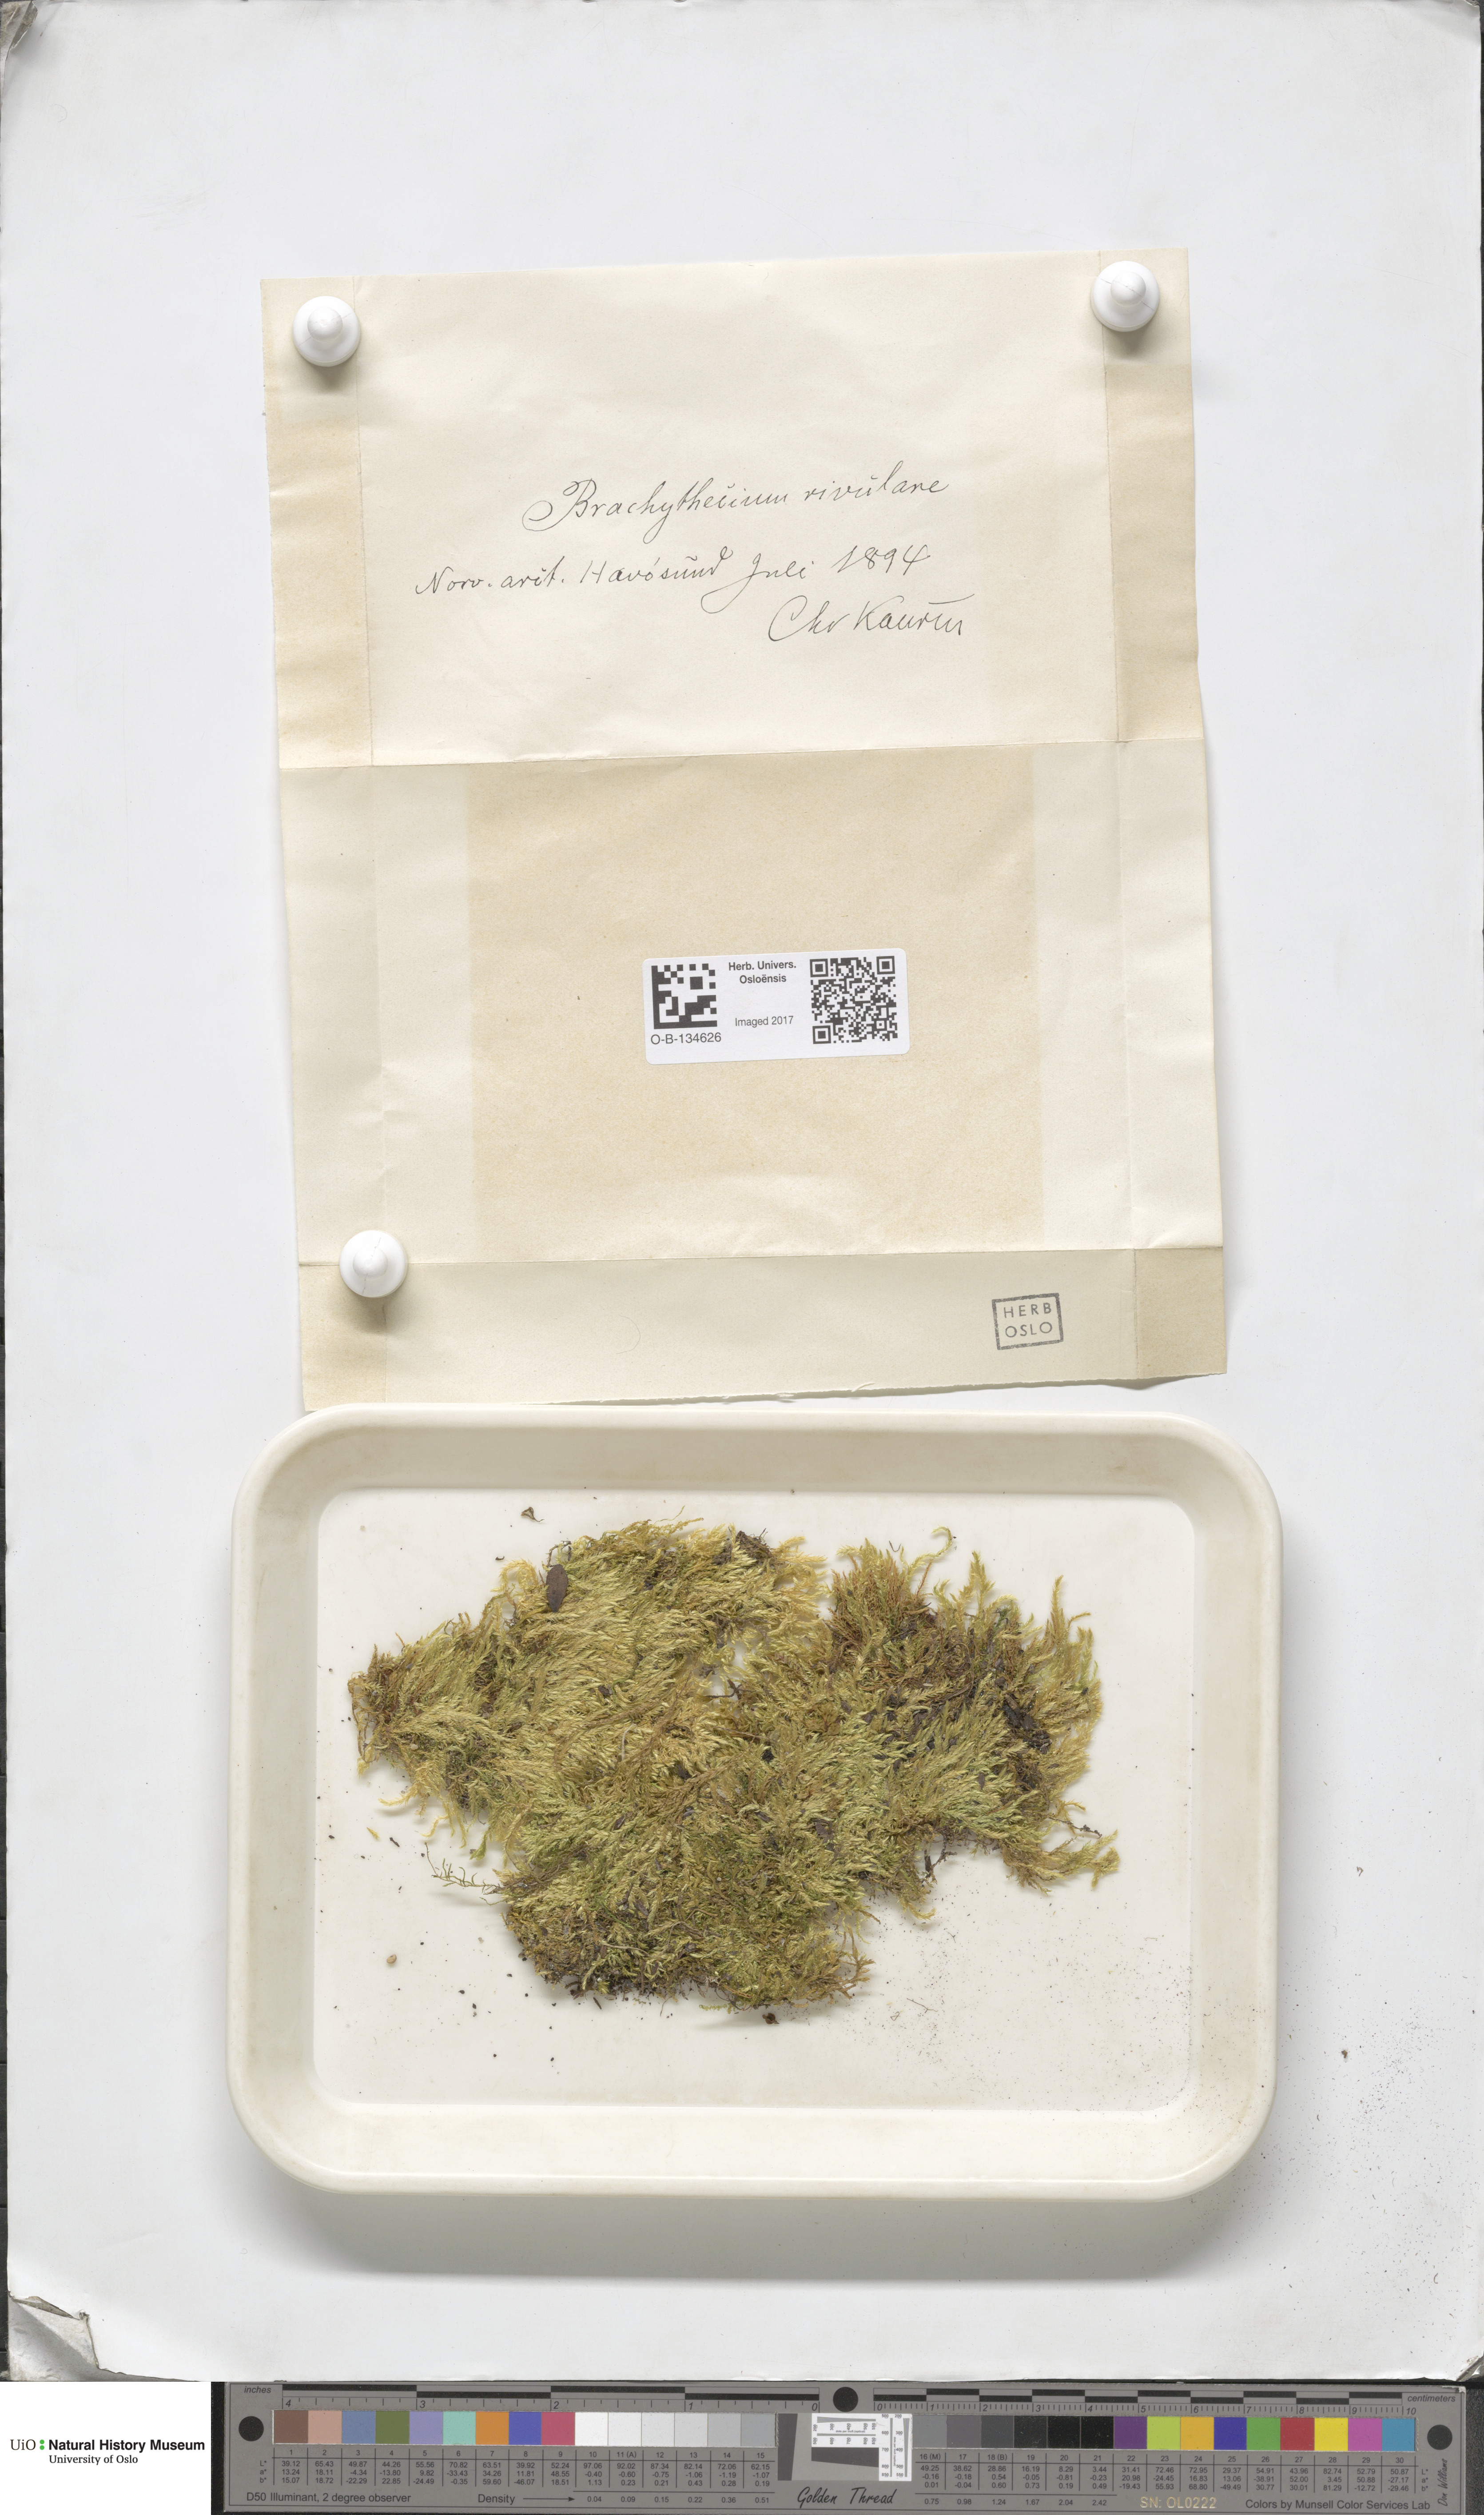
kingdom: Plantae
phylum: Bryophyta
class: Bryopsida
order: Hypnales
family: Brachytheciaceae
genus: Brachythecium
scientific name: Brachythecium rivulare
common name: River ragged moss
